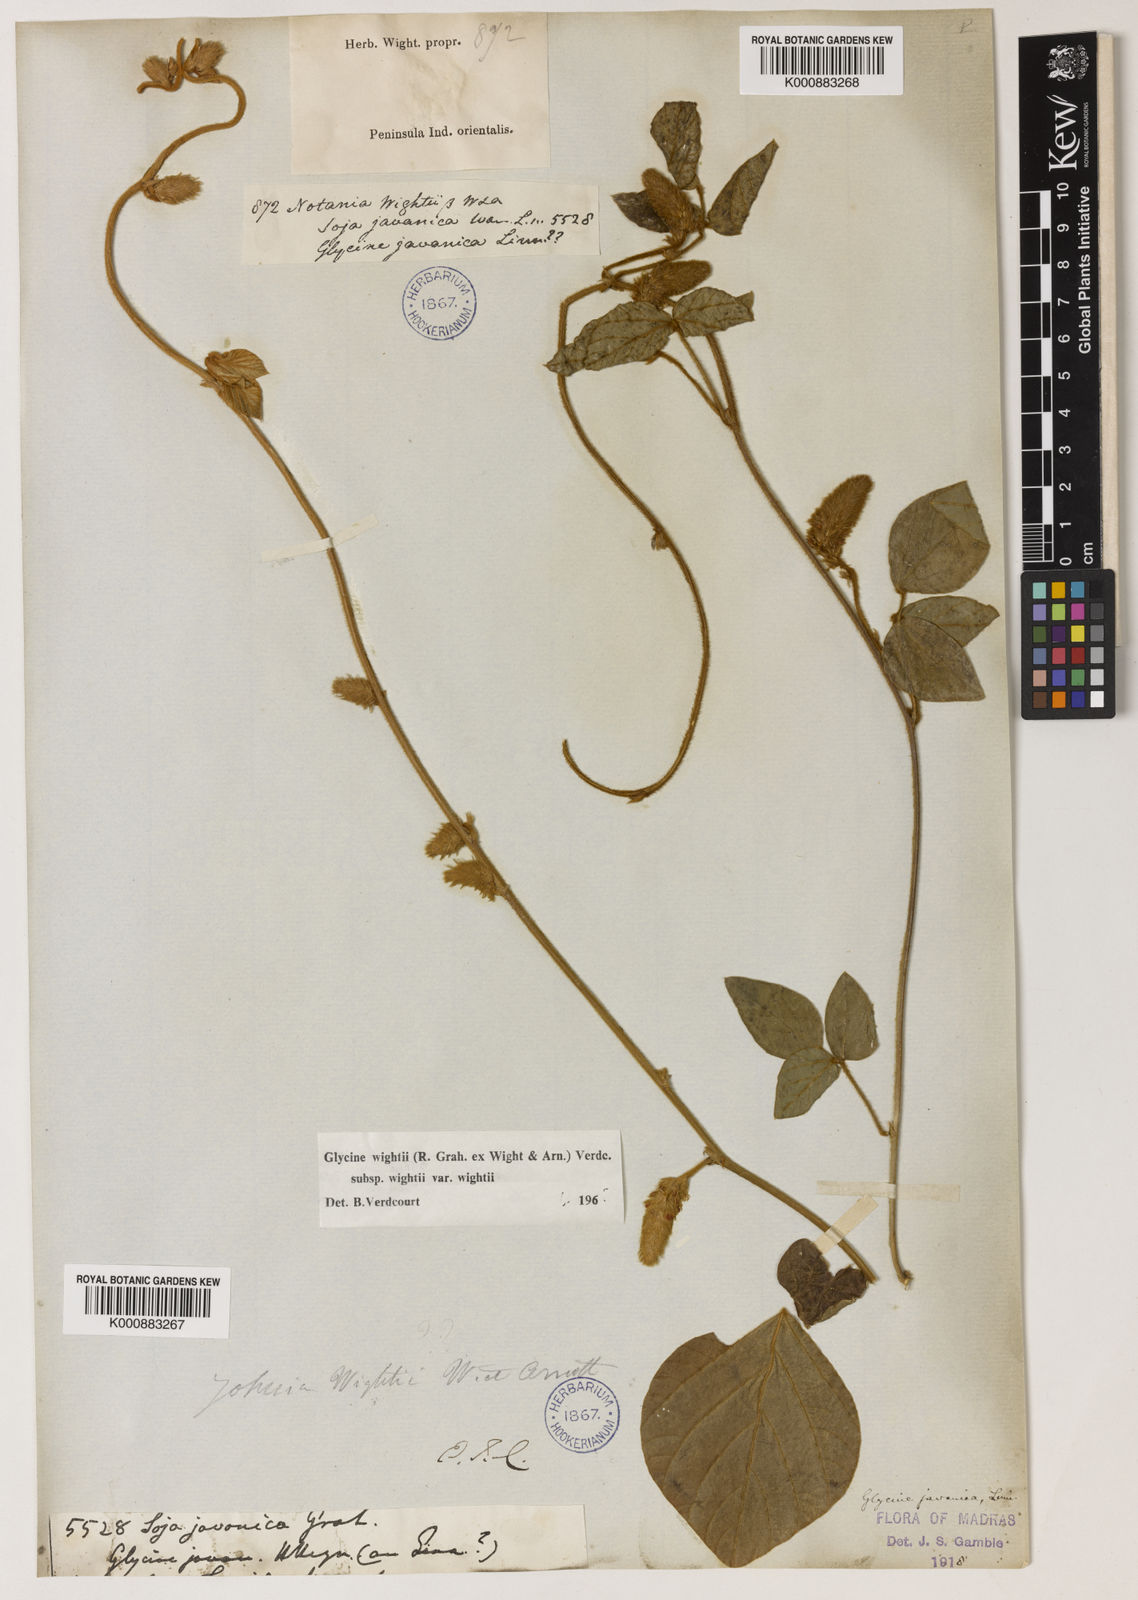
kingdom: Plantae
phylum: Tracheophyta
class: Magnoliopsida
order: Fabales
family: Fabaceae
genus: Pueraria
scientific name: Pueraria montana
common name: Kudzu
